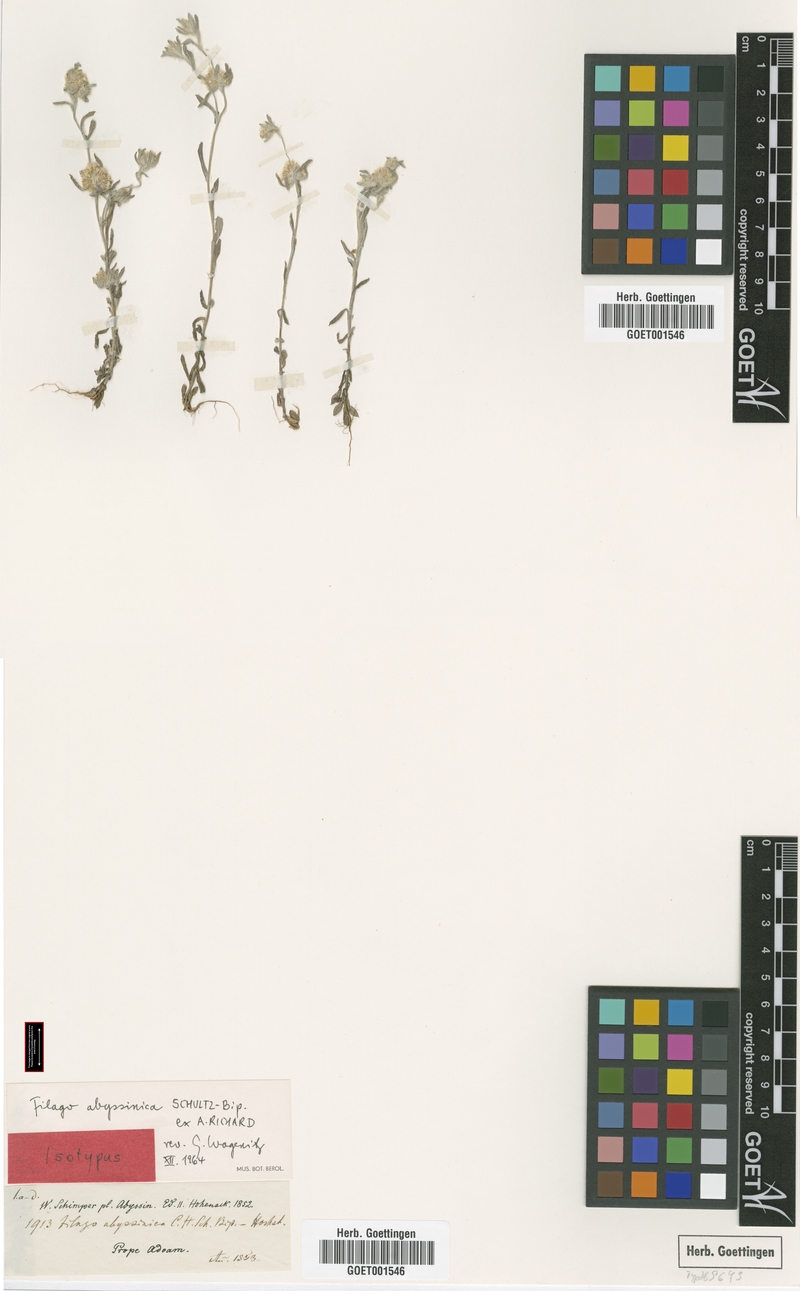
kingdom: Plantae
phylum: Tracheophyta
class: Magnoliopsida
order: Asterales
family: Asteraceae
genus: Filago
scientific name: Filago abyssinica
